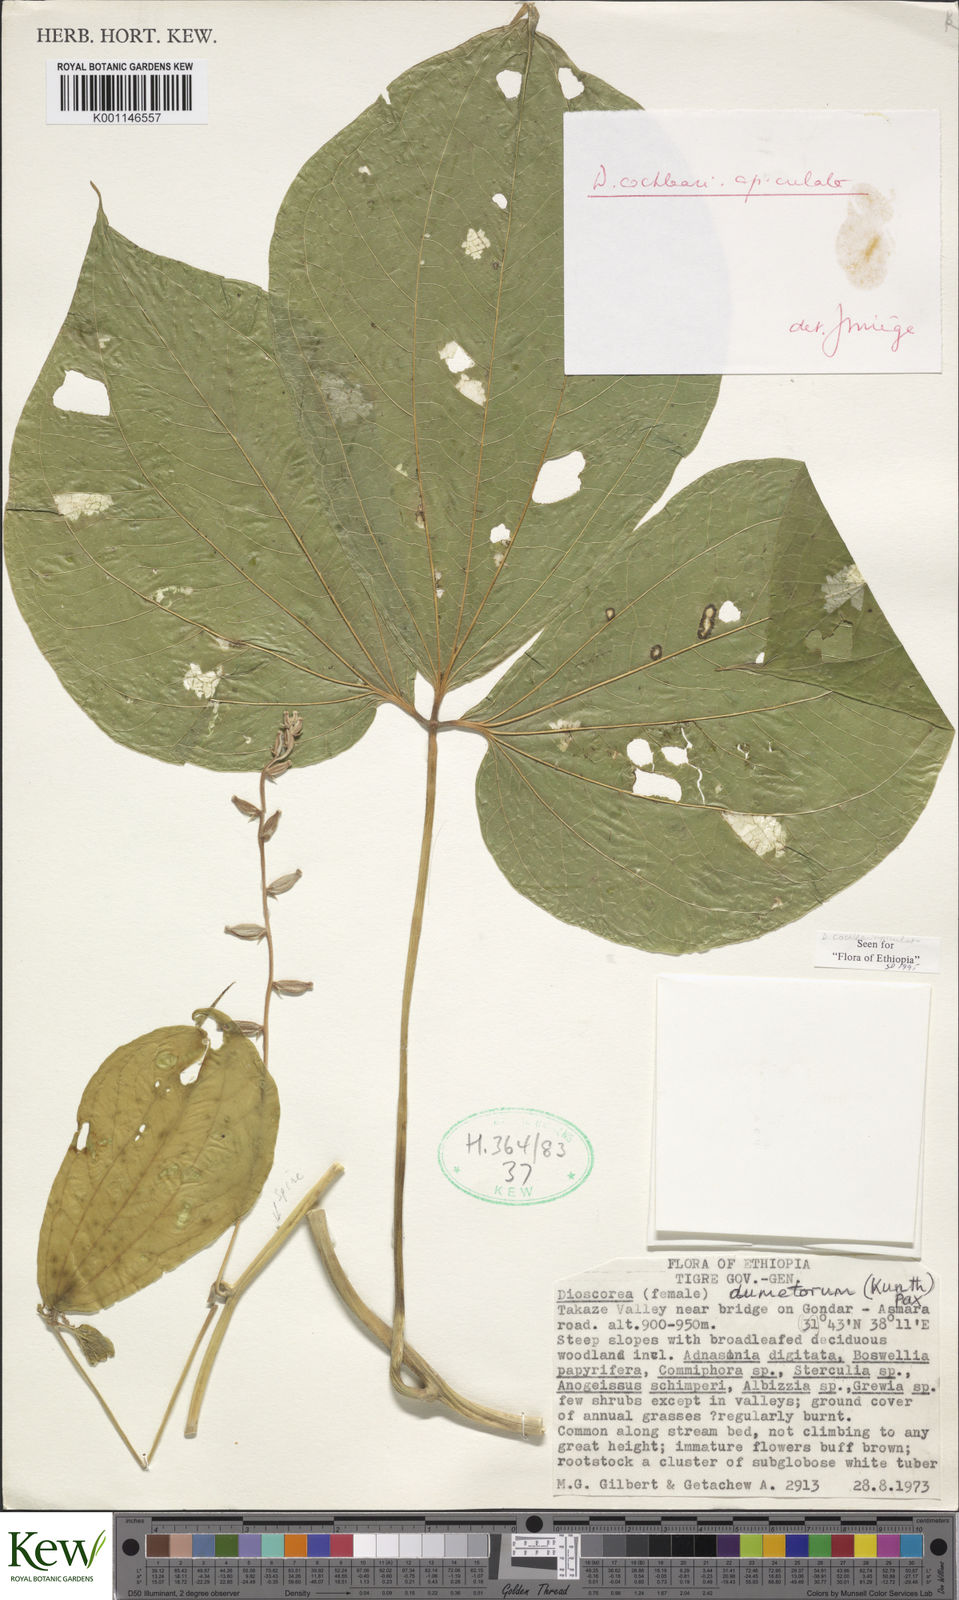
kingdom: Plantae
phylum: Tracheophyta
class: Liliopsida
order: Dioscoreales
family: Dioscoreaceae
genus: Dioscorea
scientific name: Dioscorea cochleariapiculata
